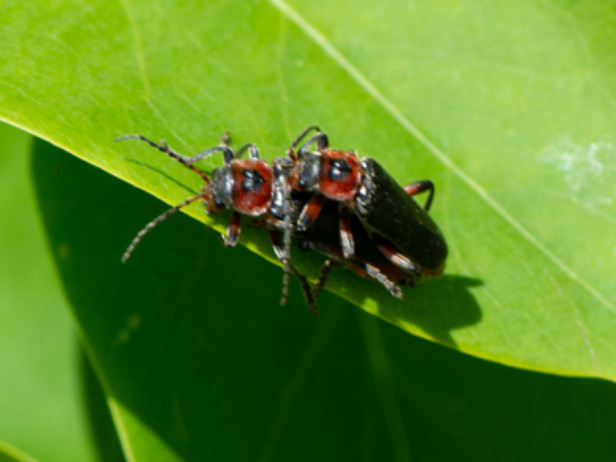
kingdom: Animalia
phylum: Arthropoda
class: Insecta
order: Coleoptera
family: Cantharidae
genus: Cantharis
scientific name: Cantharis rustica
